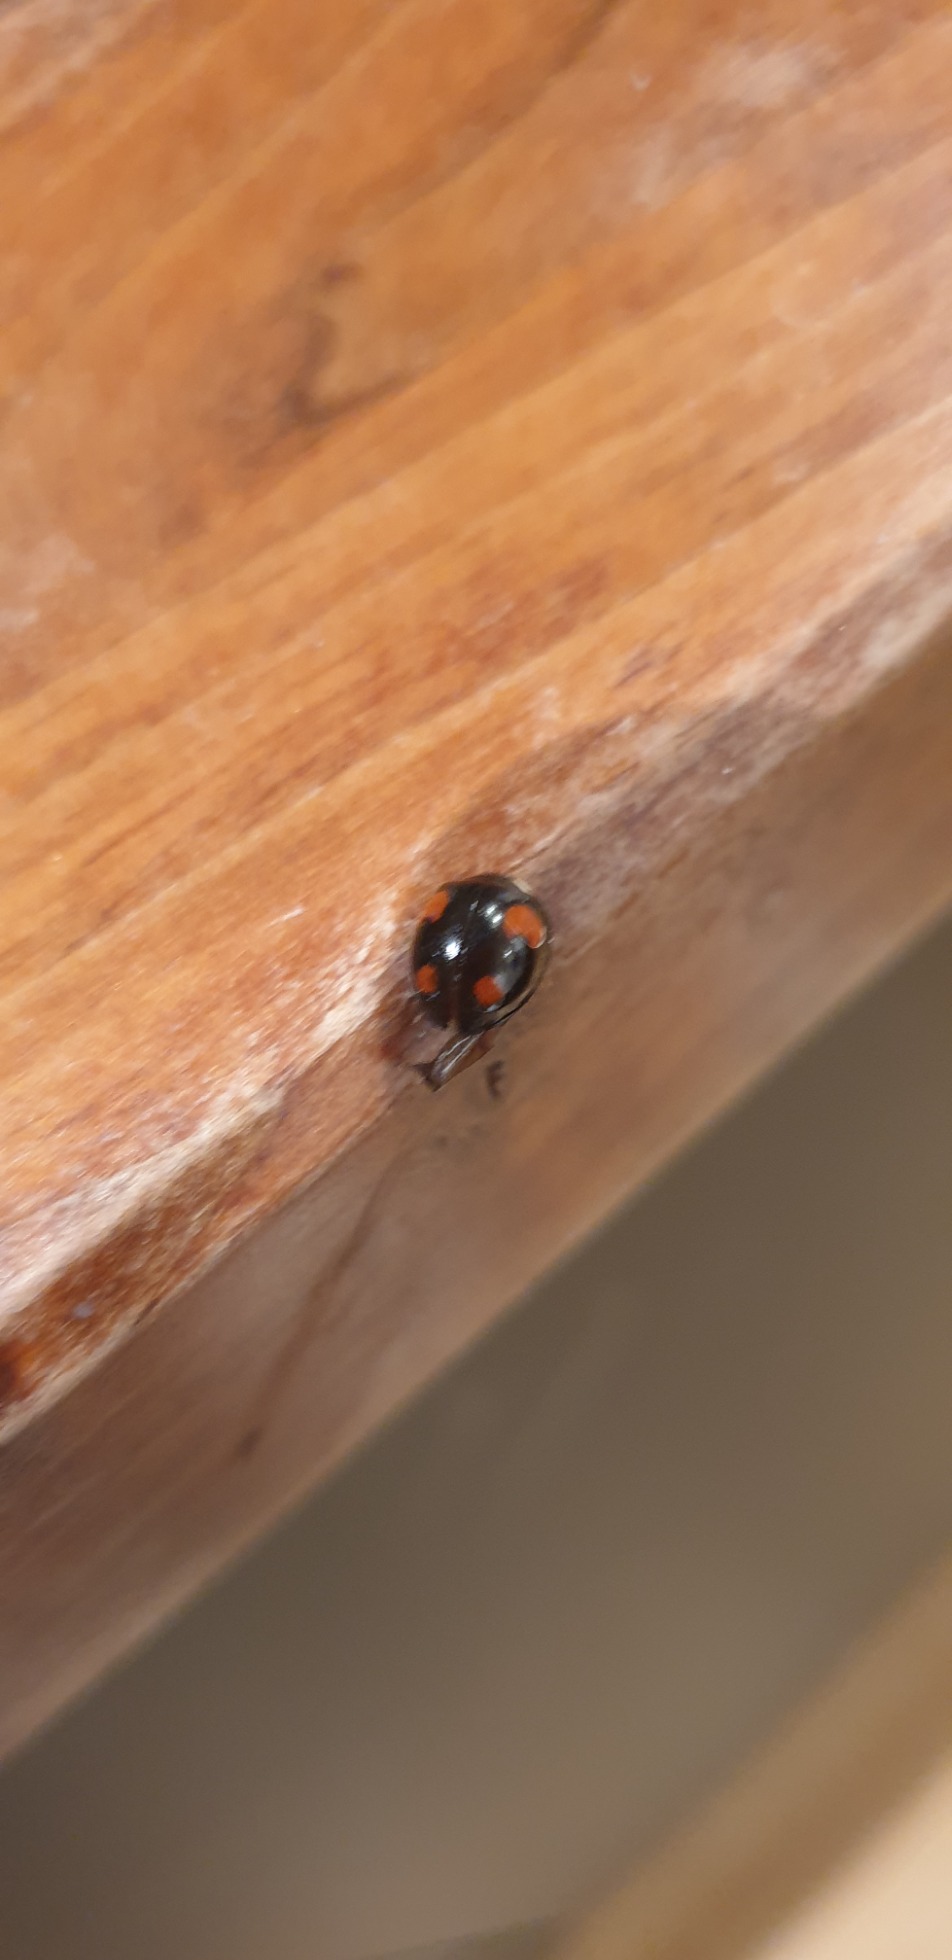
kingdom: Animalia
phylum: Arthropoda
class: Insecta
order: Coleoptera
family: Coccinellidae
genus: Harmonia
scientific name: Harmonia axyridis
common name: Harlekinmariehøne
